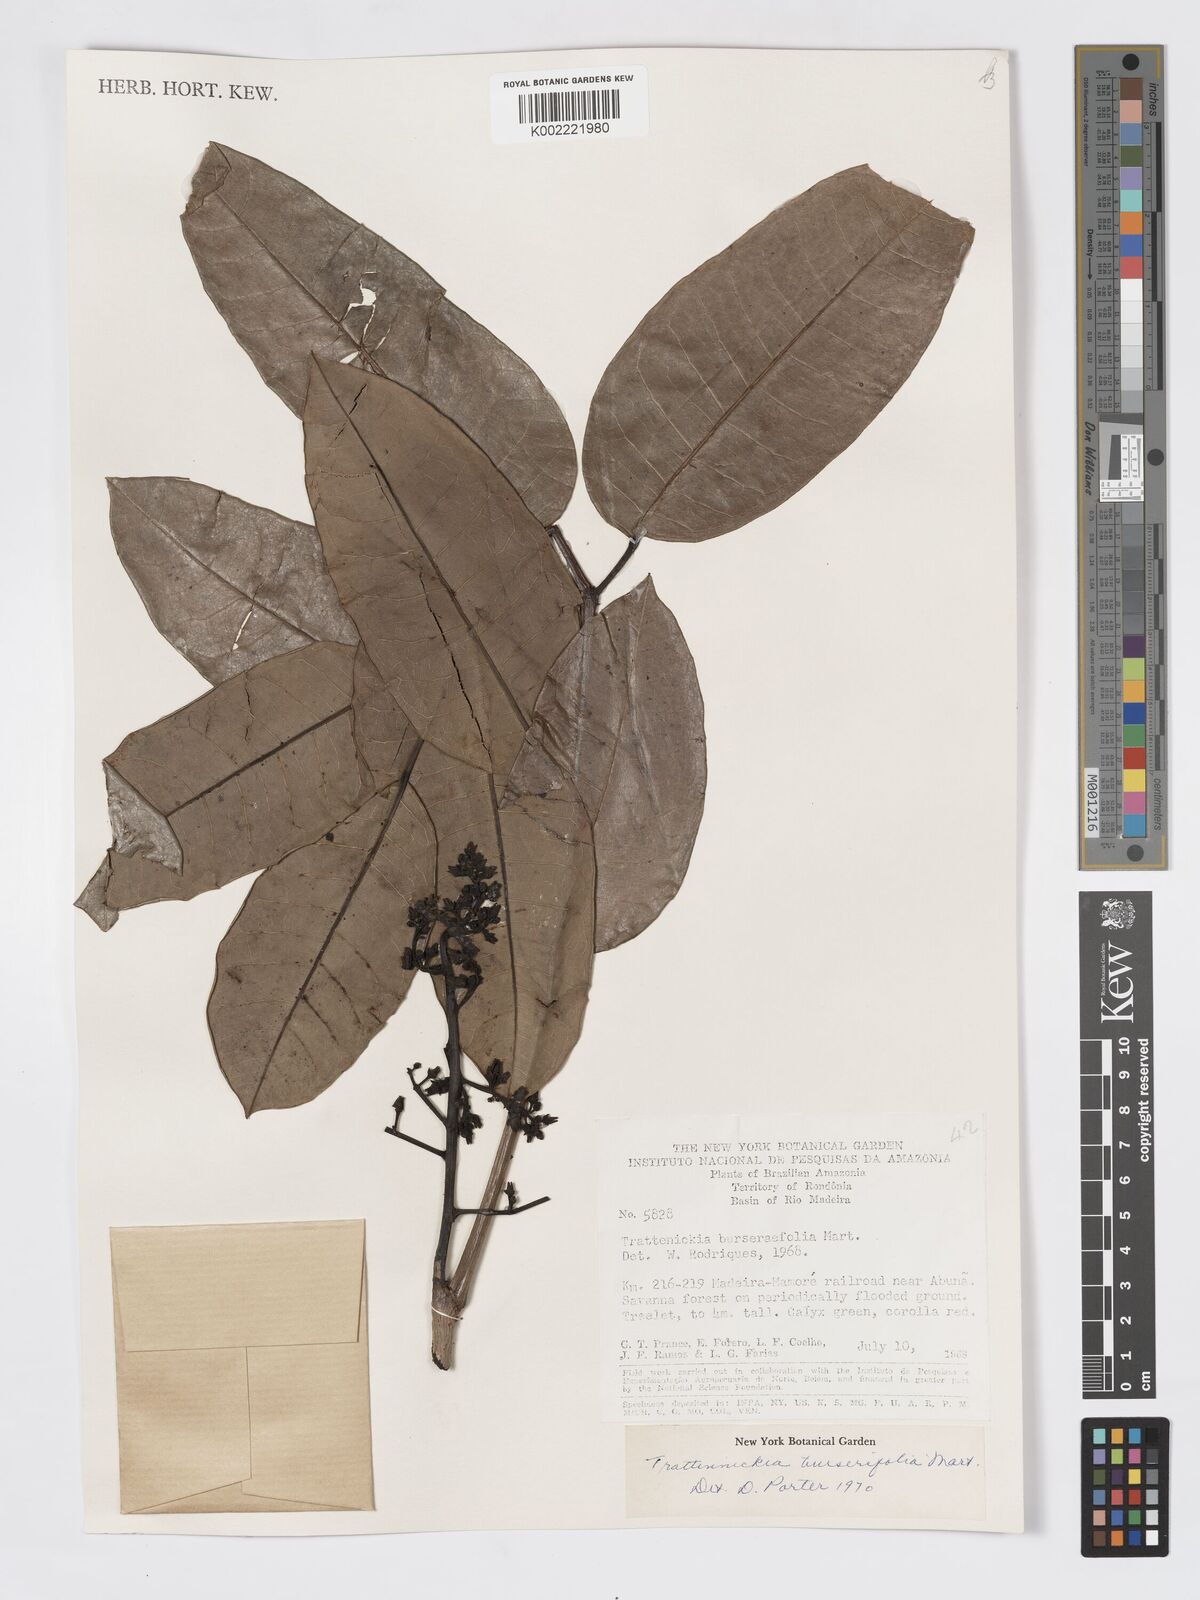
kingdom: Plantae
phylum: Tracheophyta
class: Magnoliopsida
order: Sapindales
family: Burseraceae
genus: Trattinnickia
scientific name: Trattinnickia burserifolia
